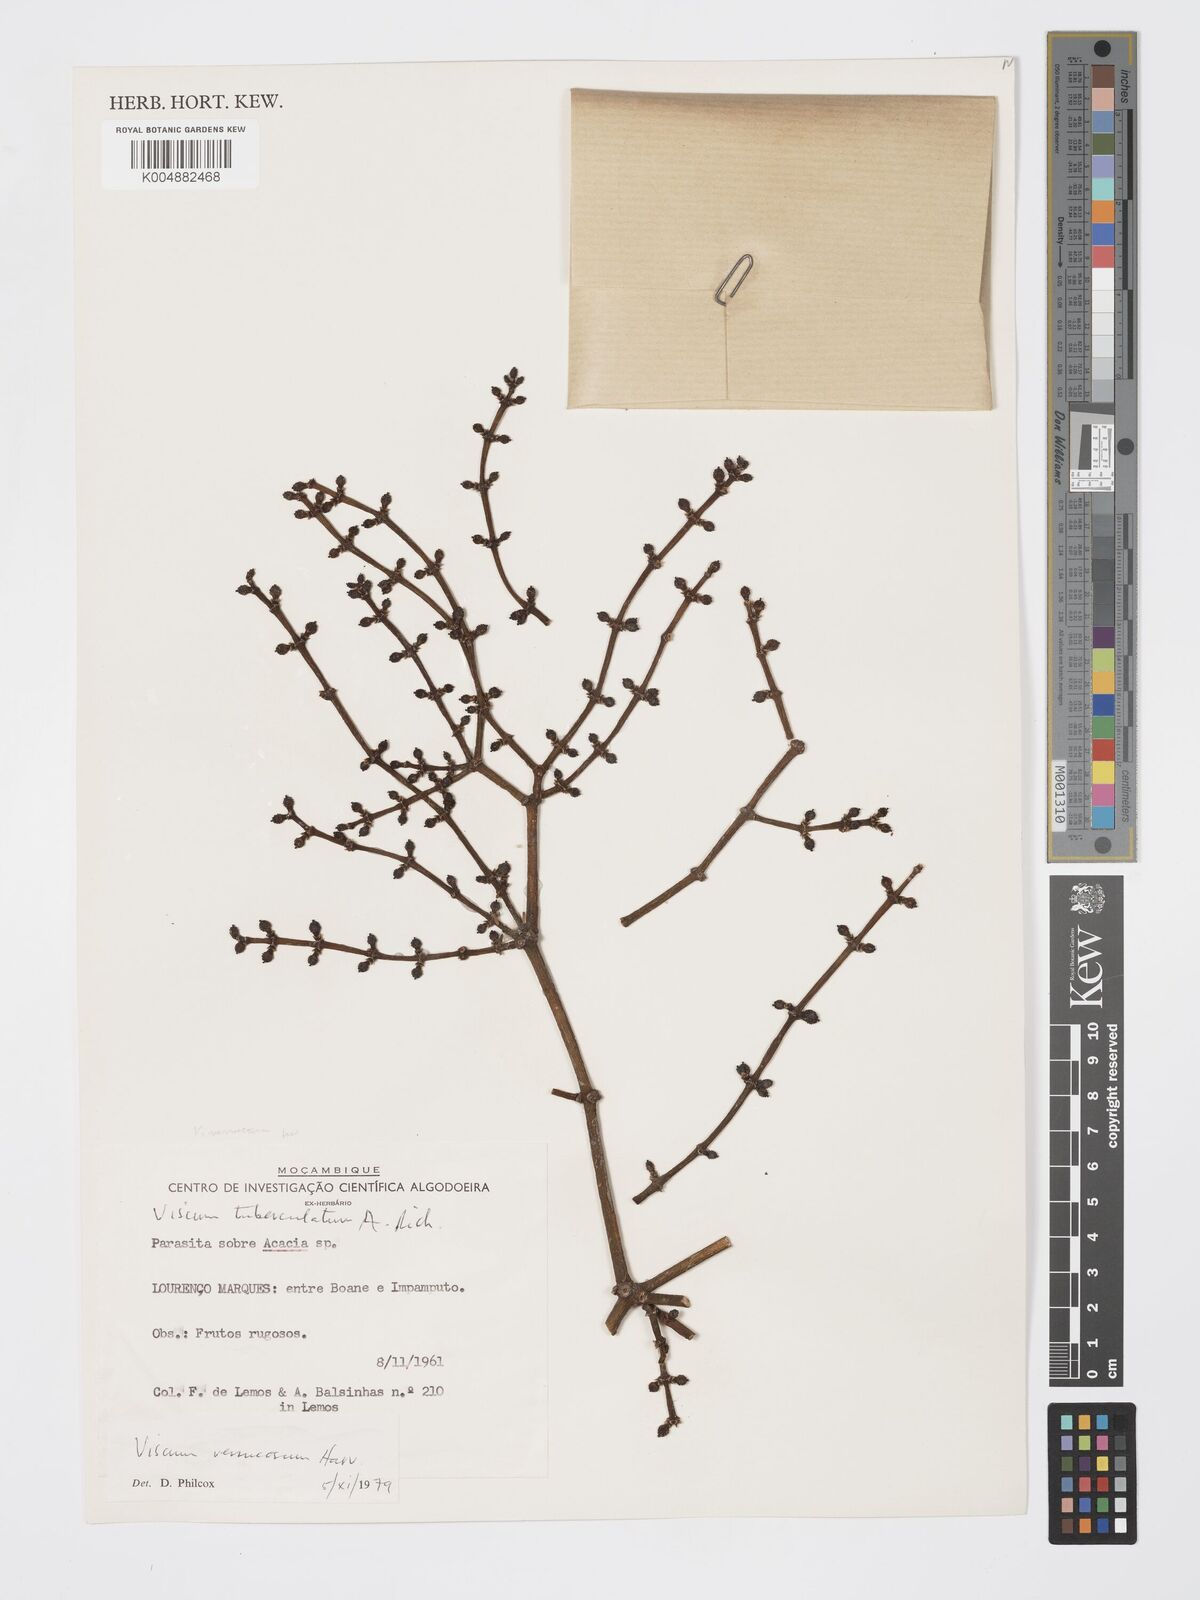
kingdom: Plantae
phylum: Tracheophyta
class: Magnoliopsida
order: Santalales
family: Viscaceae
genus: Viscum
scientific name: Viscum verrucosum
